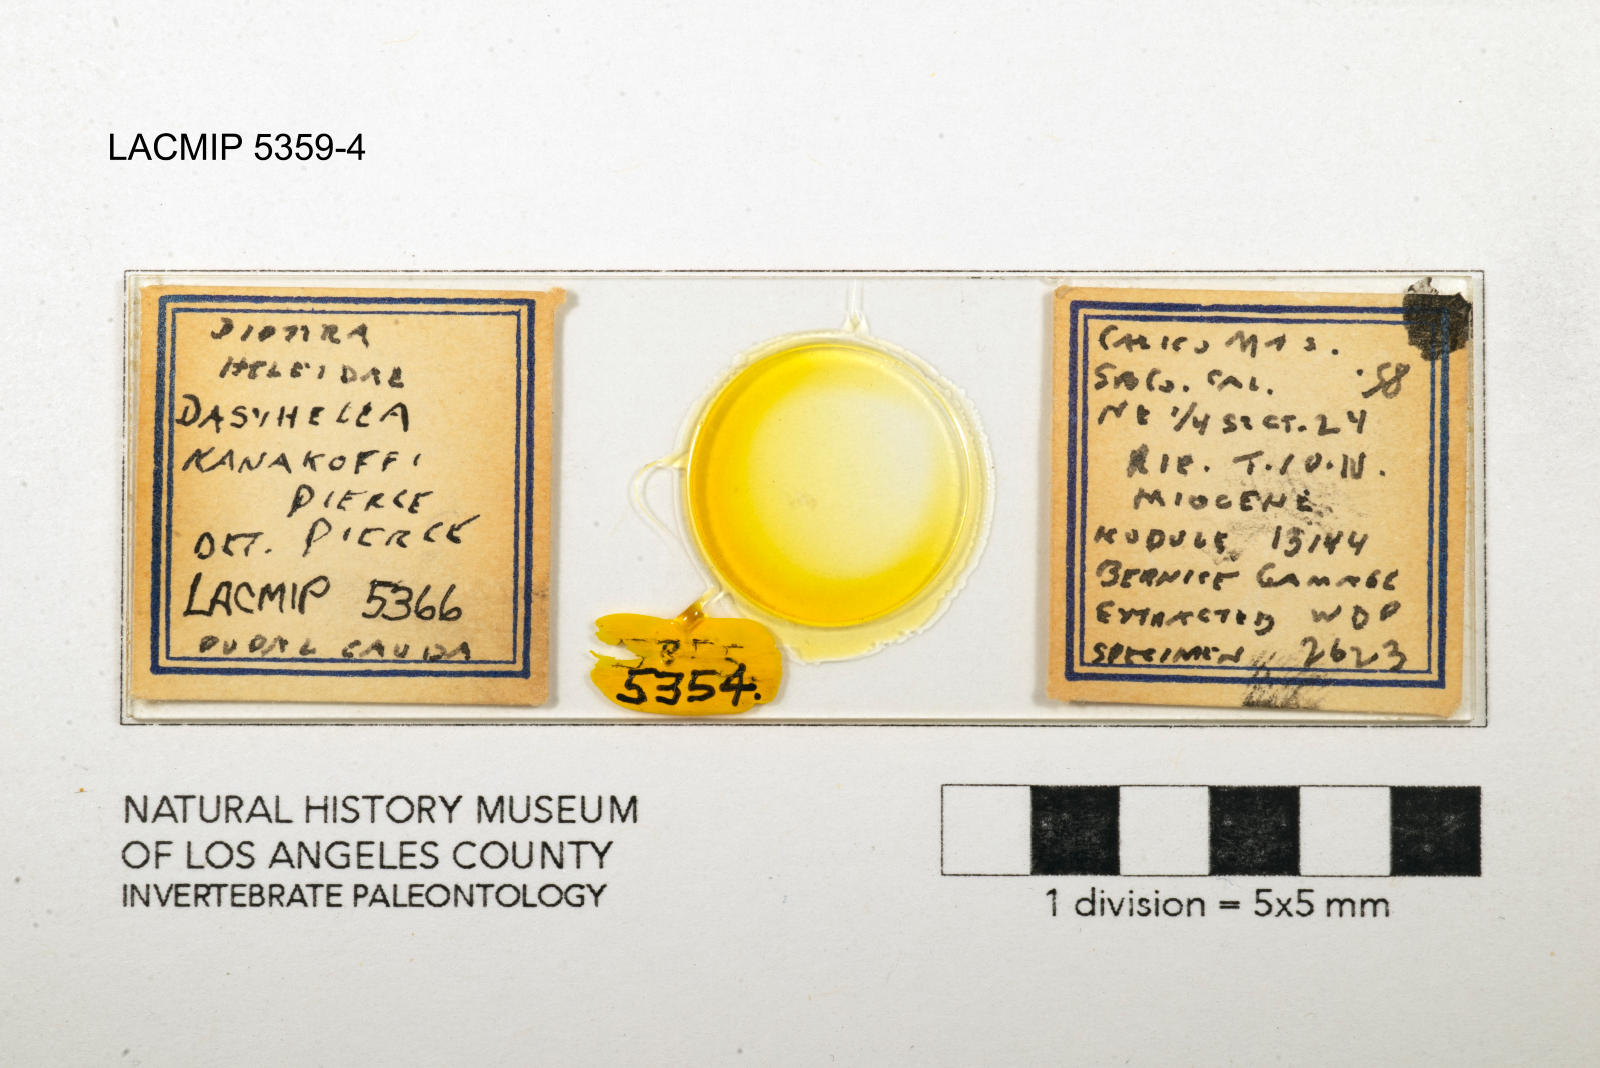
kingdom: Animalia
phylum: Arthropoda
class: Insecta
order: Diptera
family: Ceratopogonidae
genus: Dasyhelea
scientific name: Dasyhelea kanakoffi
